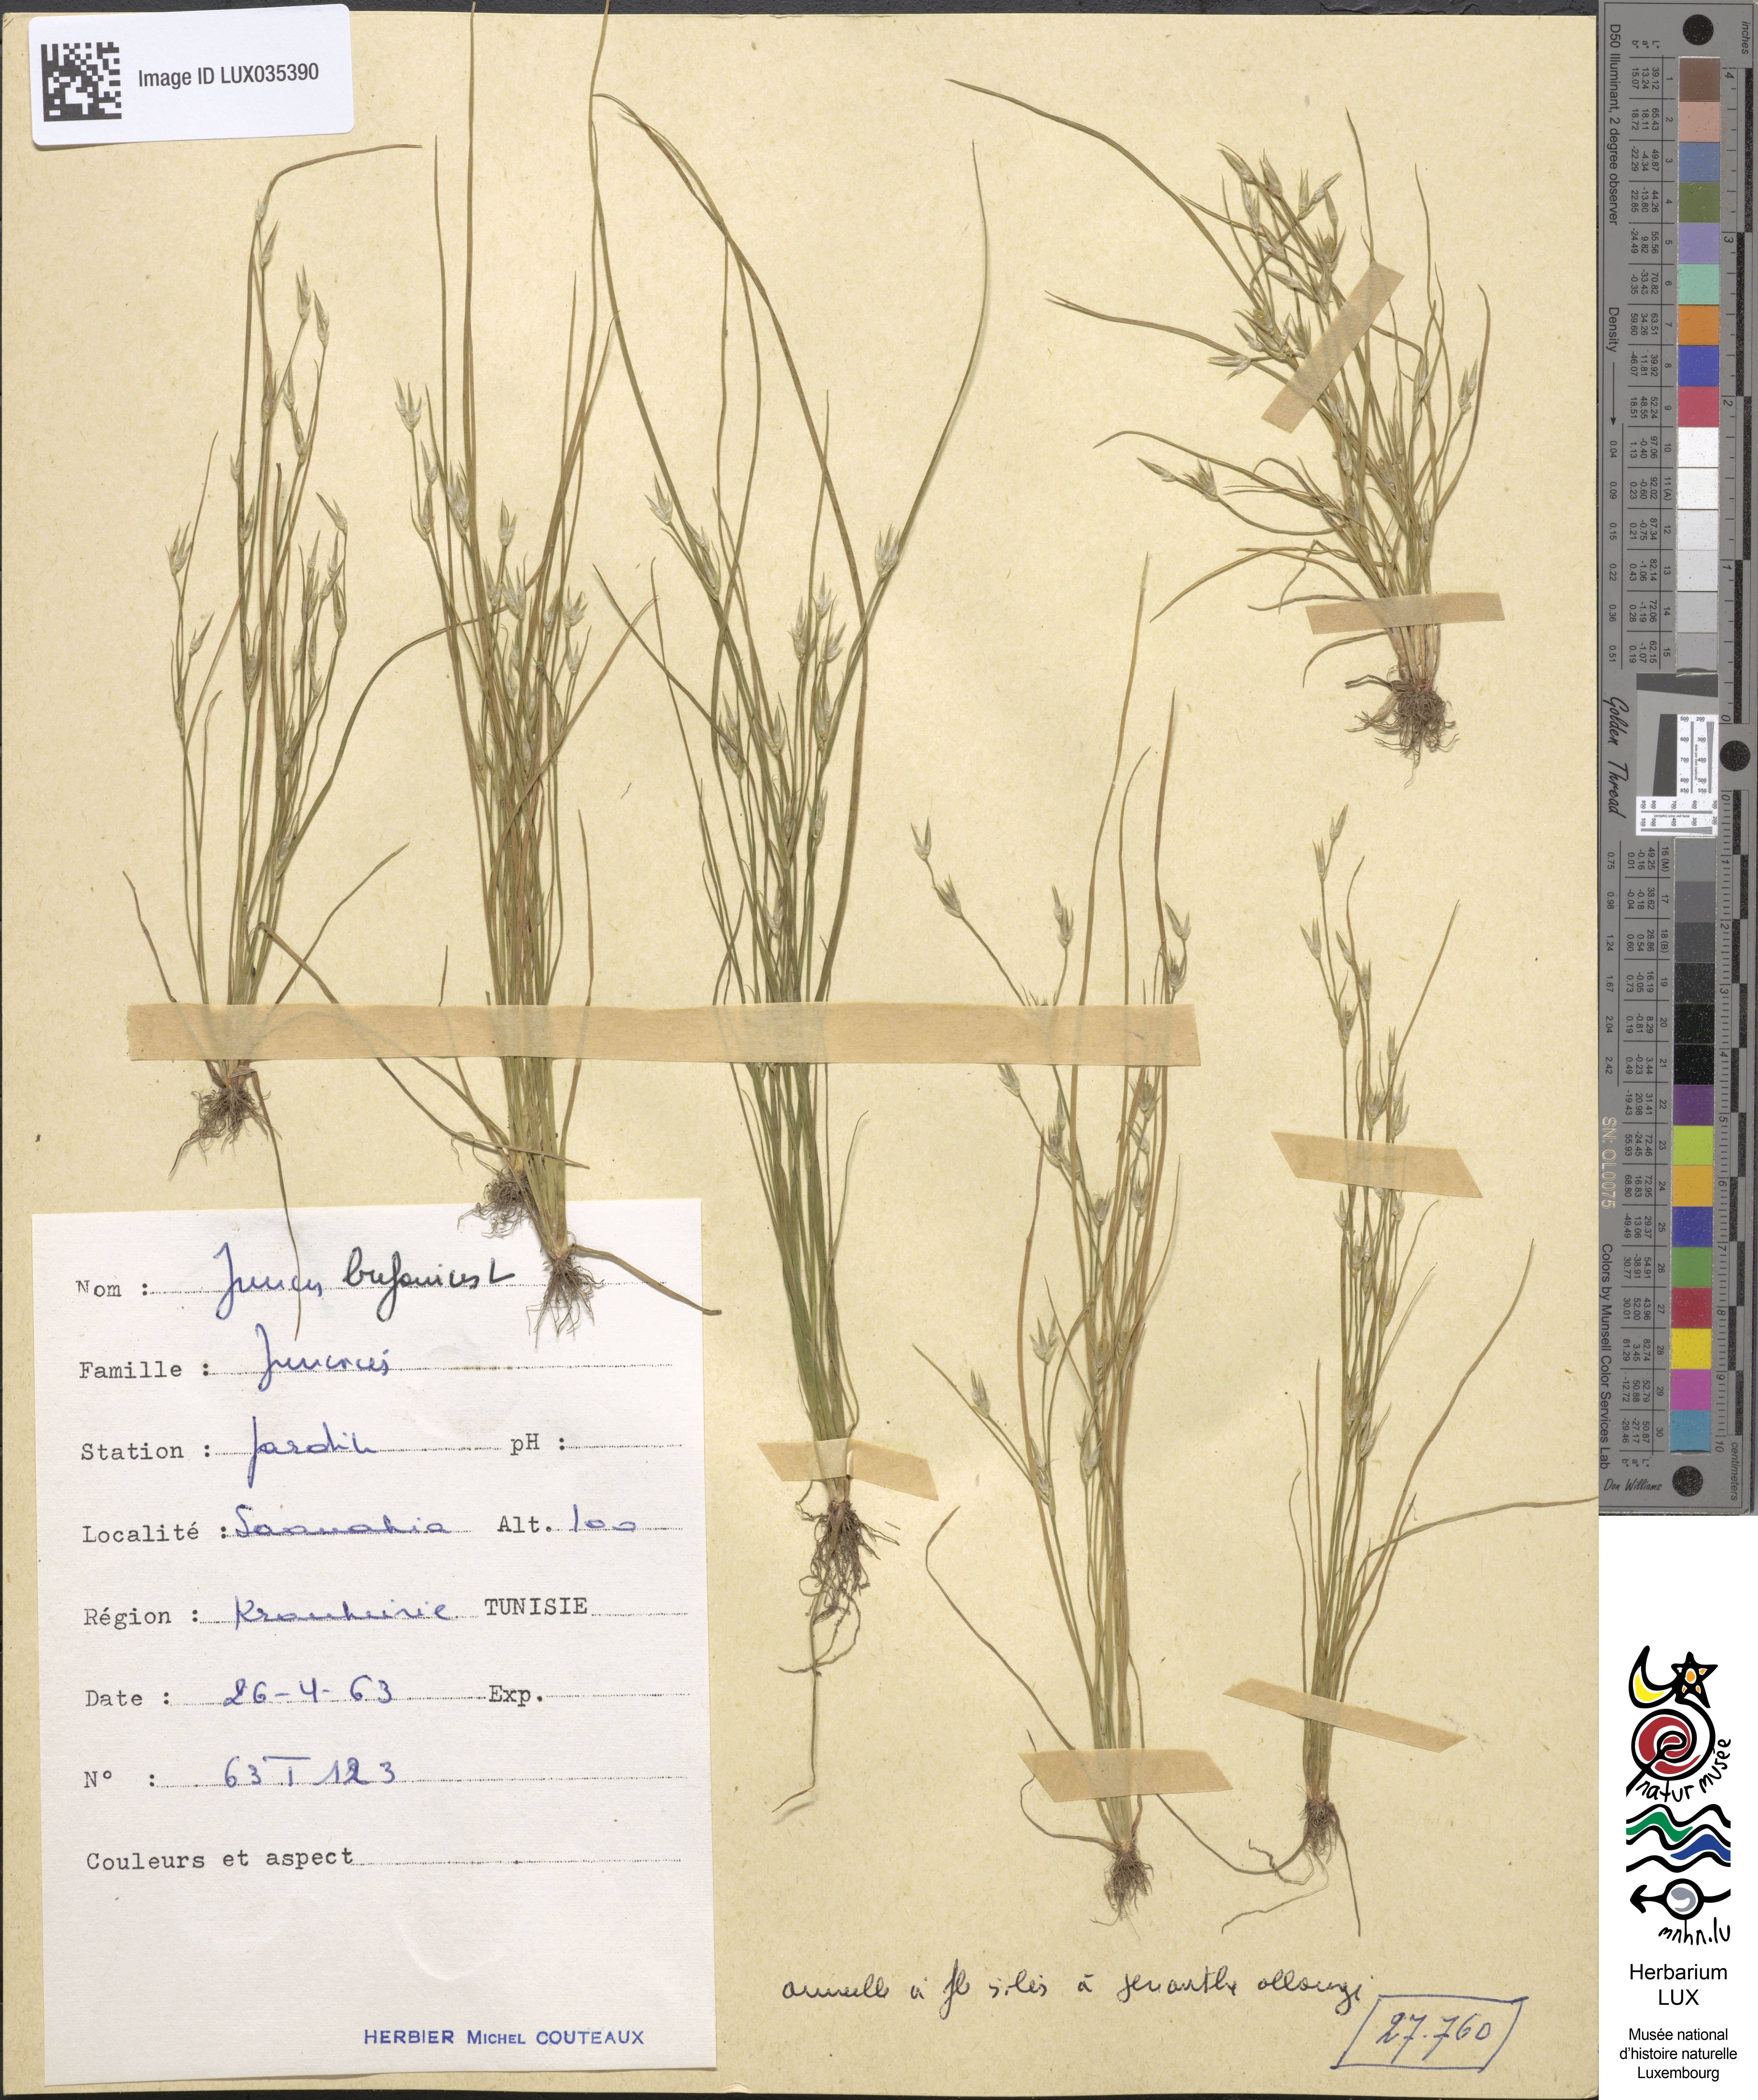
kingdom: Plantae
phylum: Tracheophyta
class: Liliopsida
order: Poales
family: Juncaceae
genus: Juncus
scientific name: Juncus bufonius
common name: Toad rush
